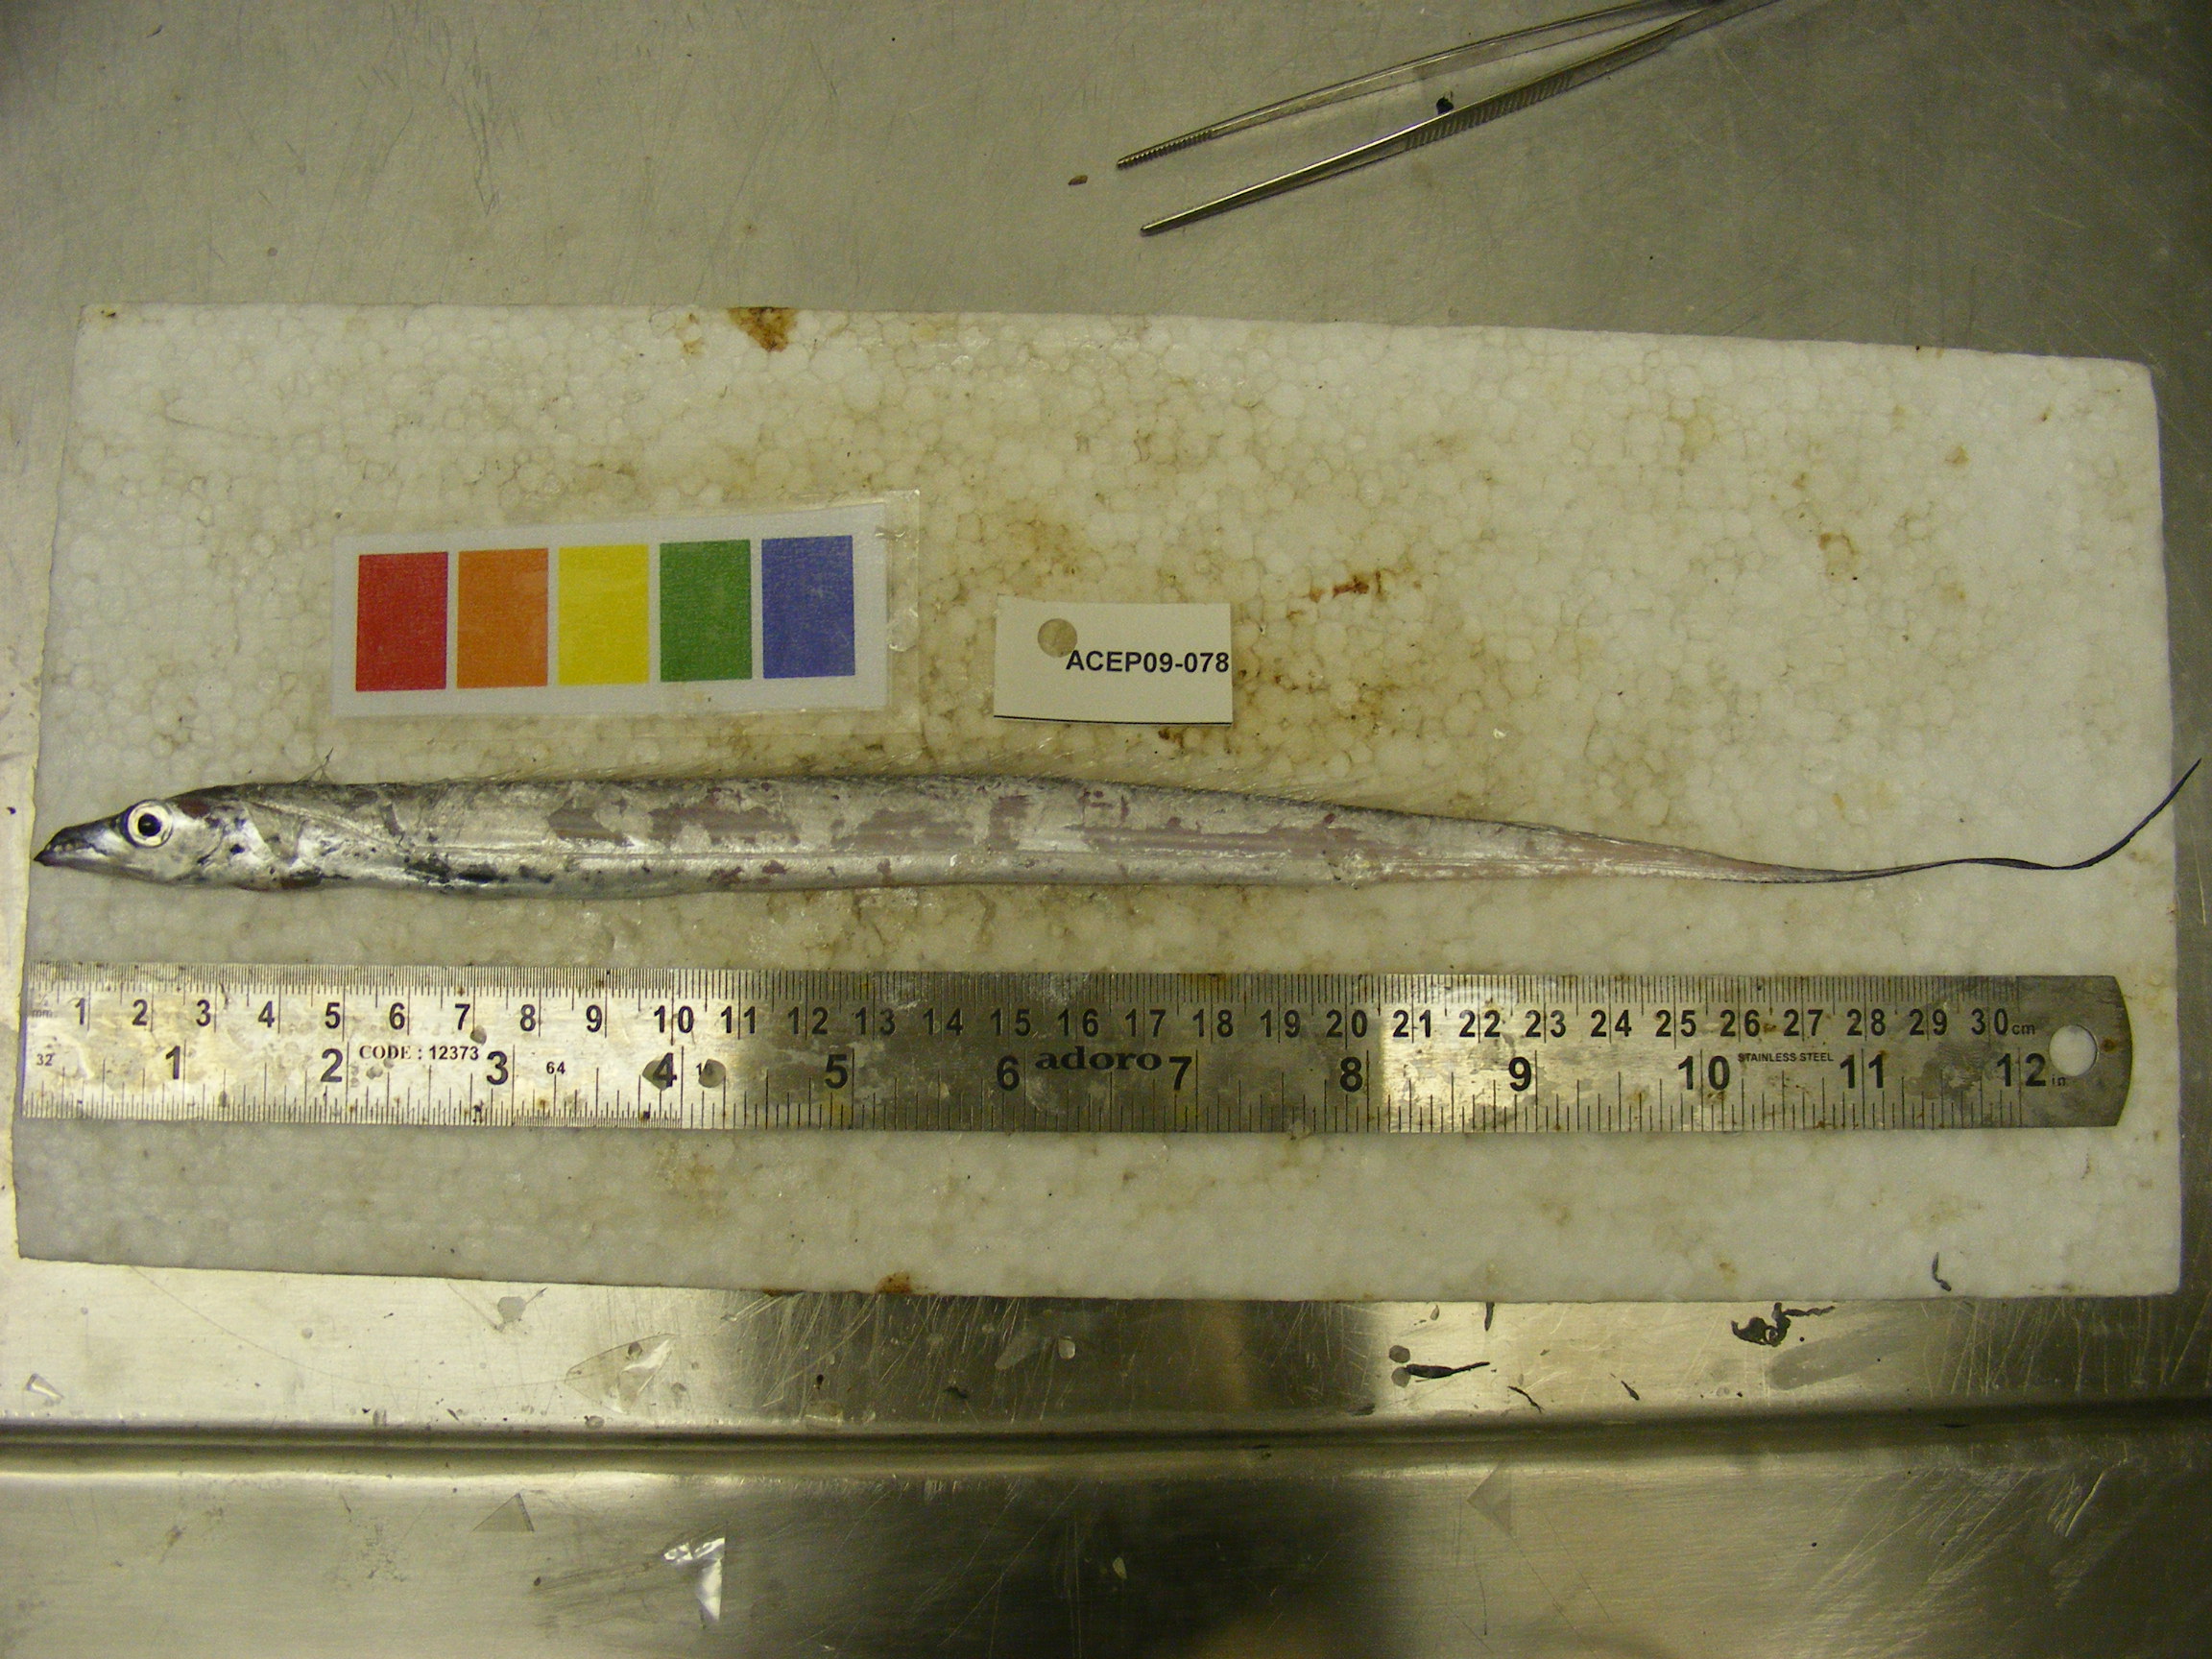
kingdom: Animalia
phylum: Chordata
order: Perciformes
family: Trichiuridae
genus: Trichiurus
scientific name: Trichiurus lepturus
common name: Largehead hairtail
